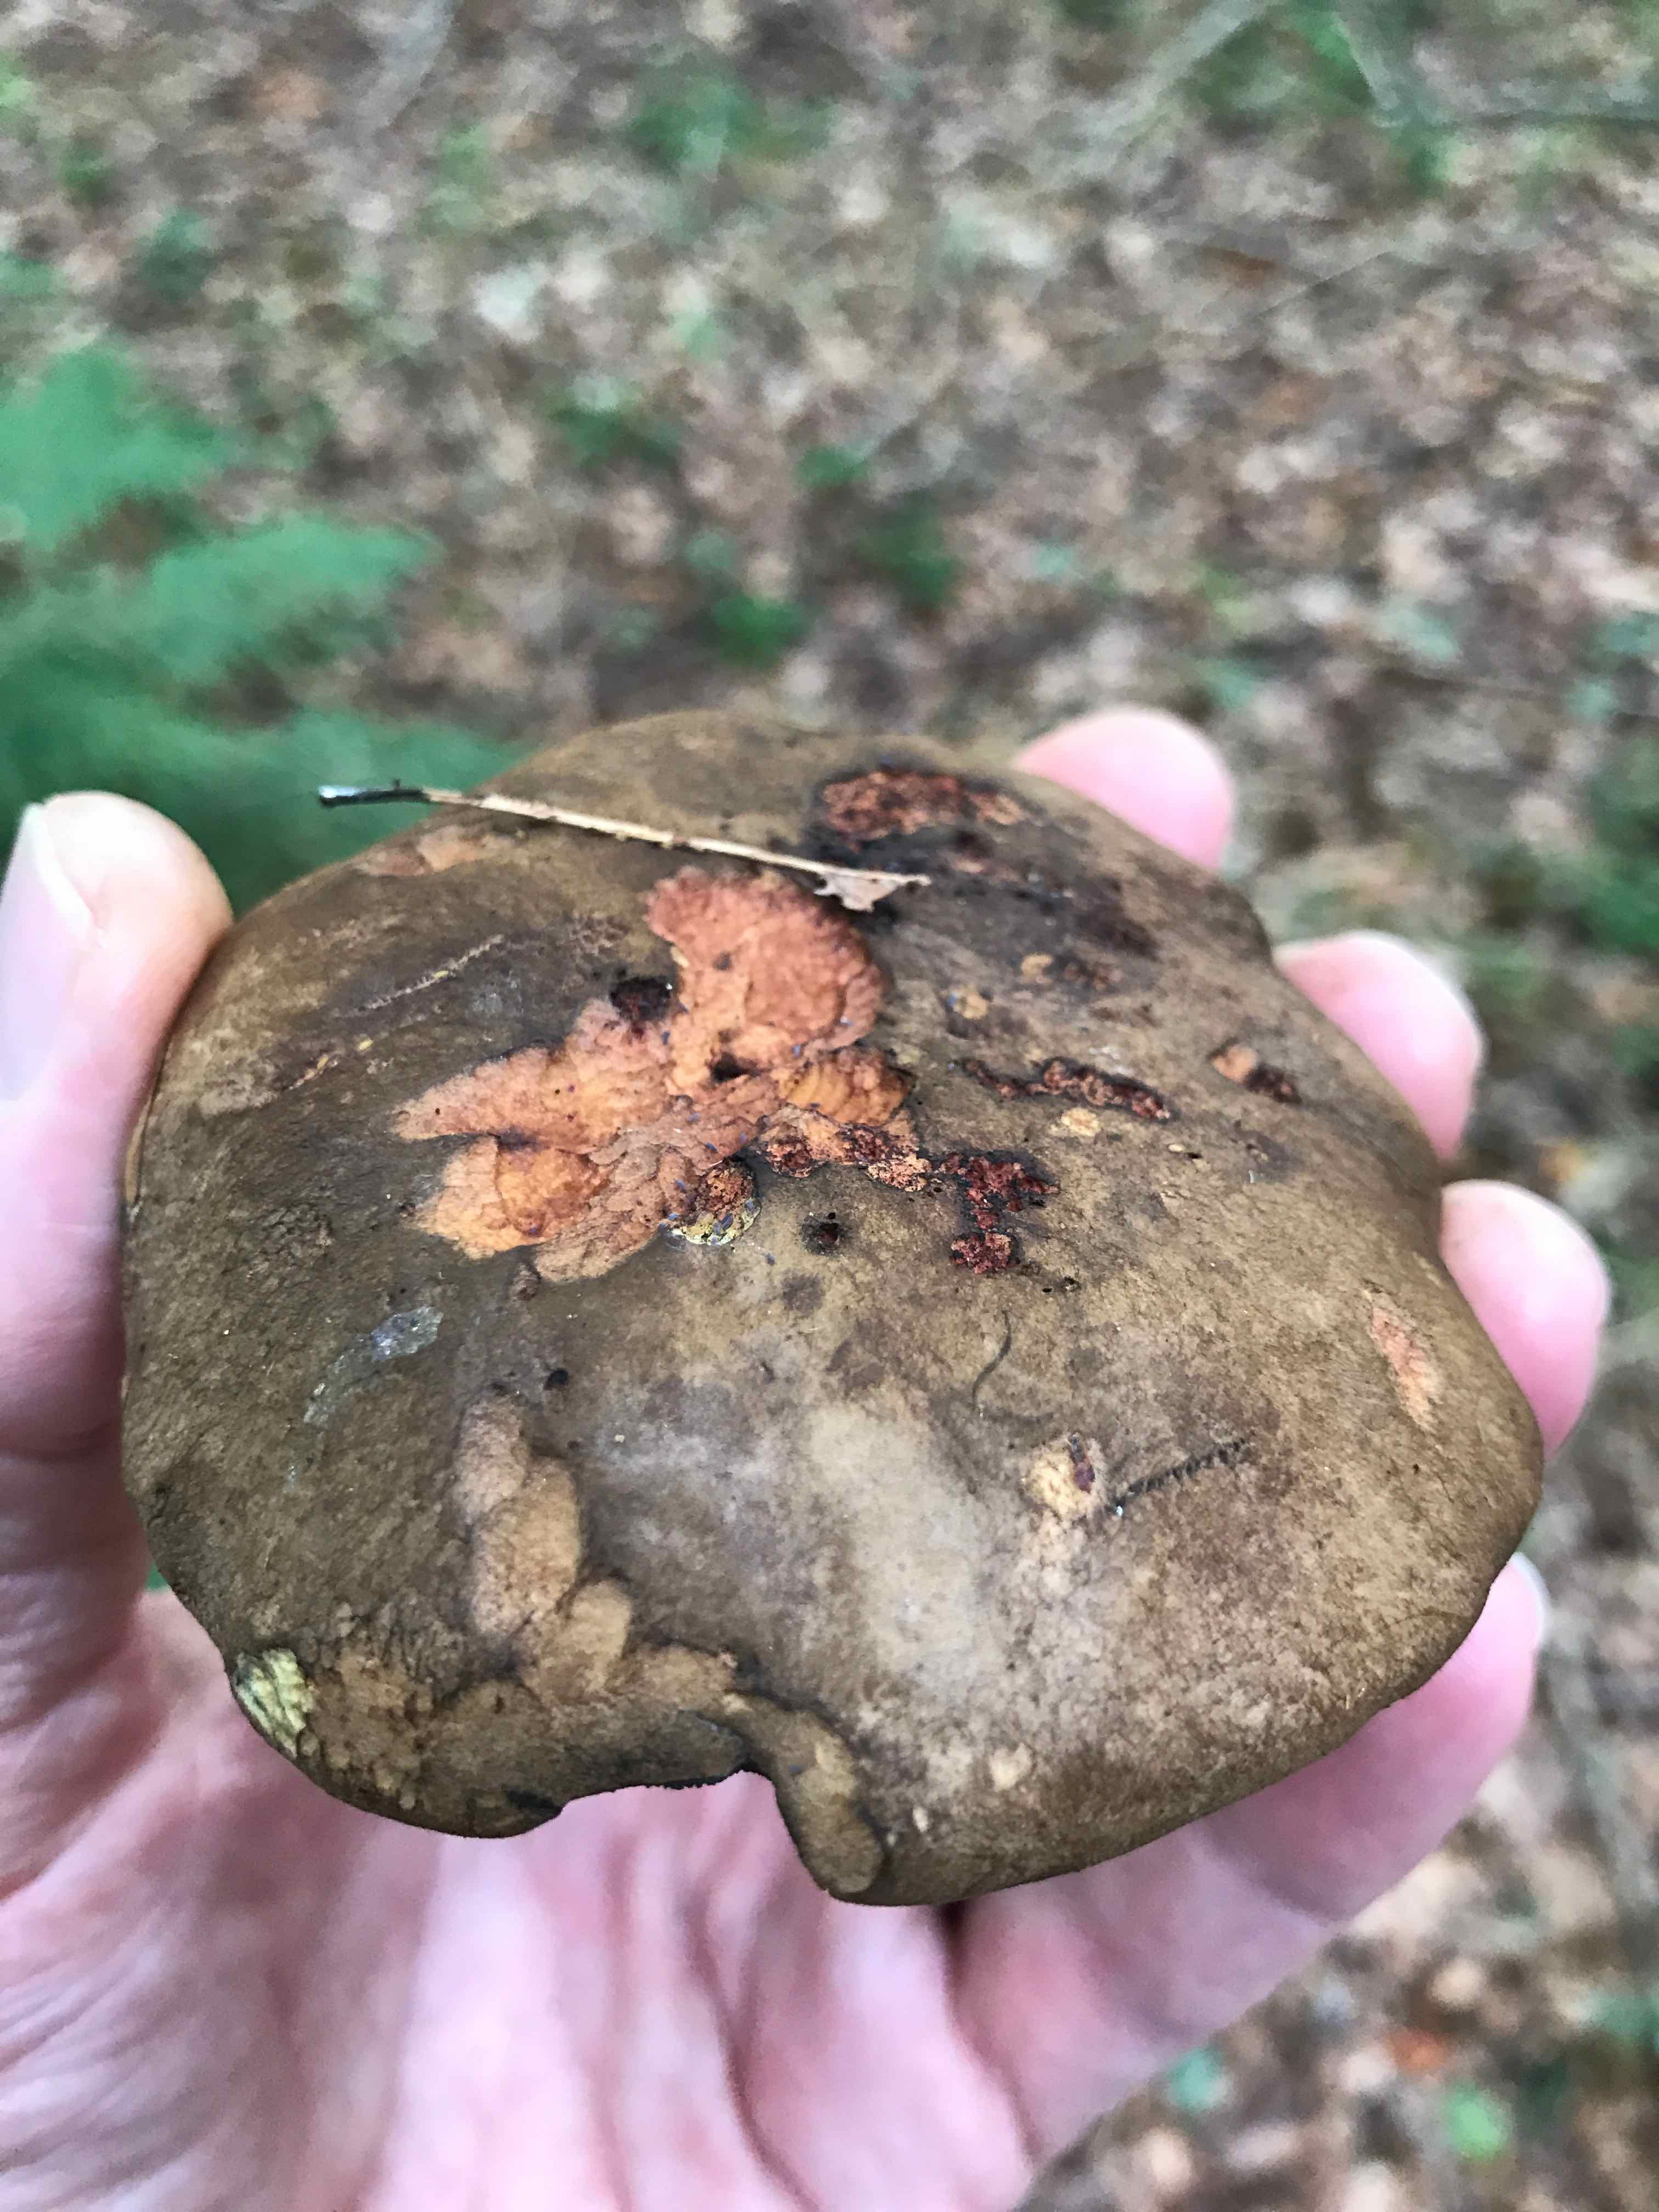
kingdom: Fungi
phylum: Basidiomycota
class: Agaricomycetes
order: Boletales
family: Boletaceae
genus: Cyanoboletus
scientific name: Cyanoboletus pulverulentus
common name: sortblånende rørhat
